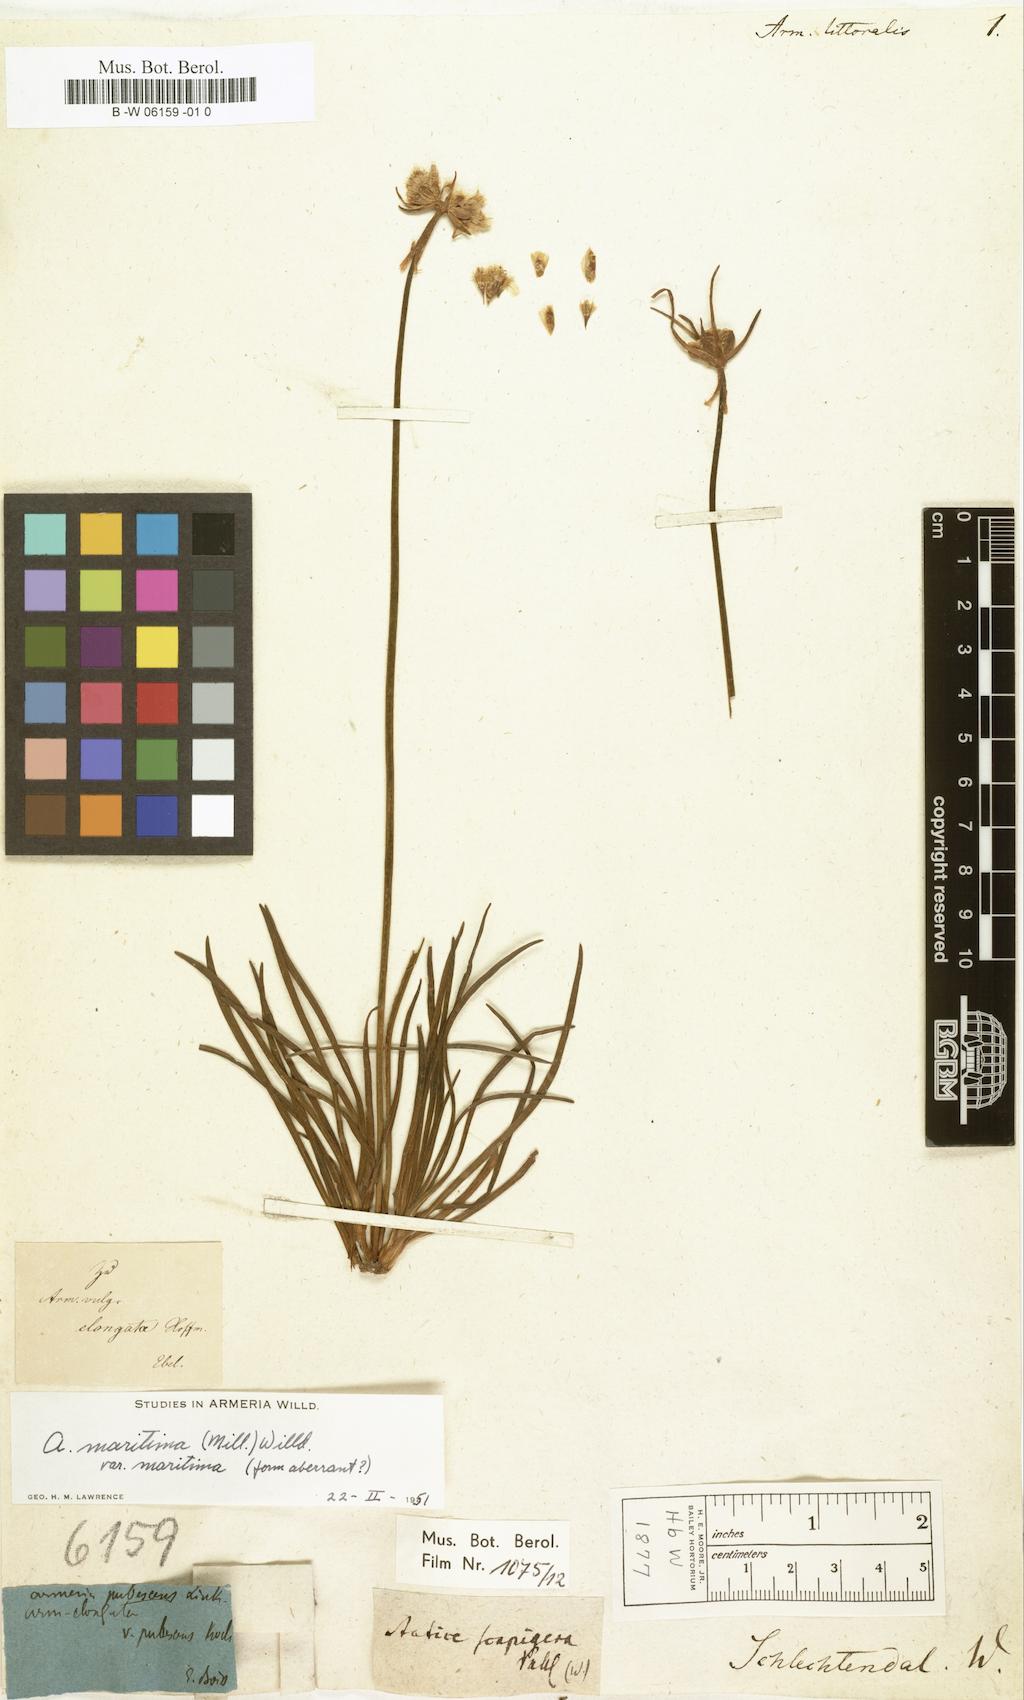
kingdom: Plantae
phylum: Tracheophyta
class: Magnoliopsida
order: Caryophyllales
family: Plumbaginaceae
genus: Armeria
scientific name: Armeria welwitschii
